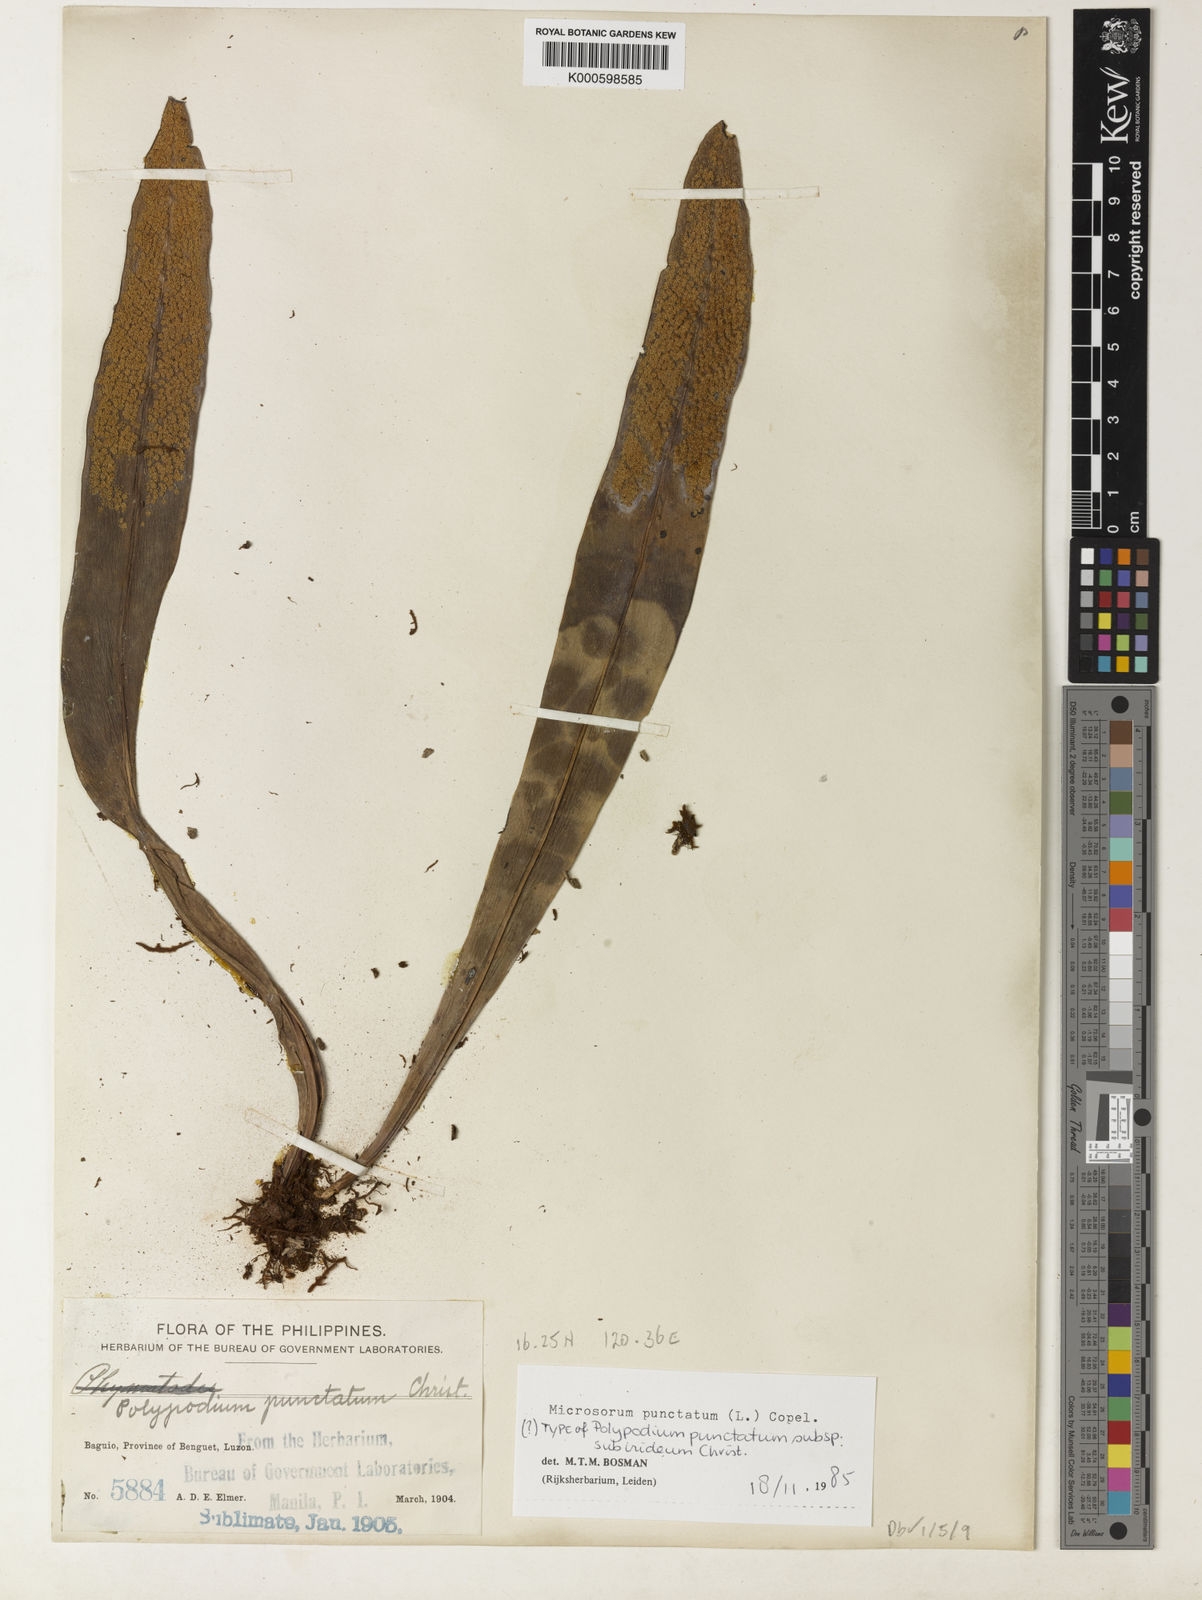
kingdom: Plantae
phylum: Tracheophyta
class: Polypodiopsida
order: Polypodiales
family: Polypodiaceae
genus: Microsorum
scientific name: Microsorum punctatum
